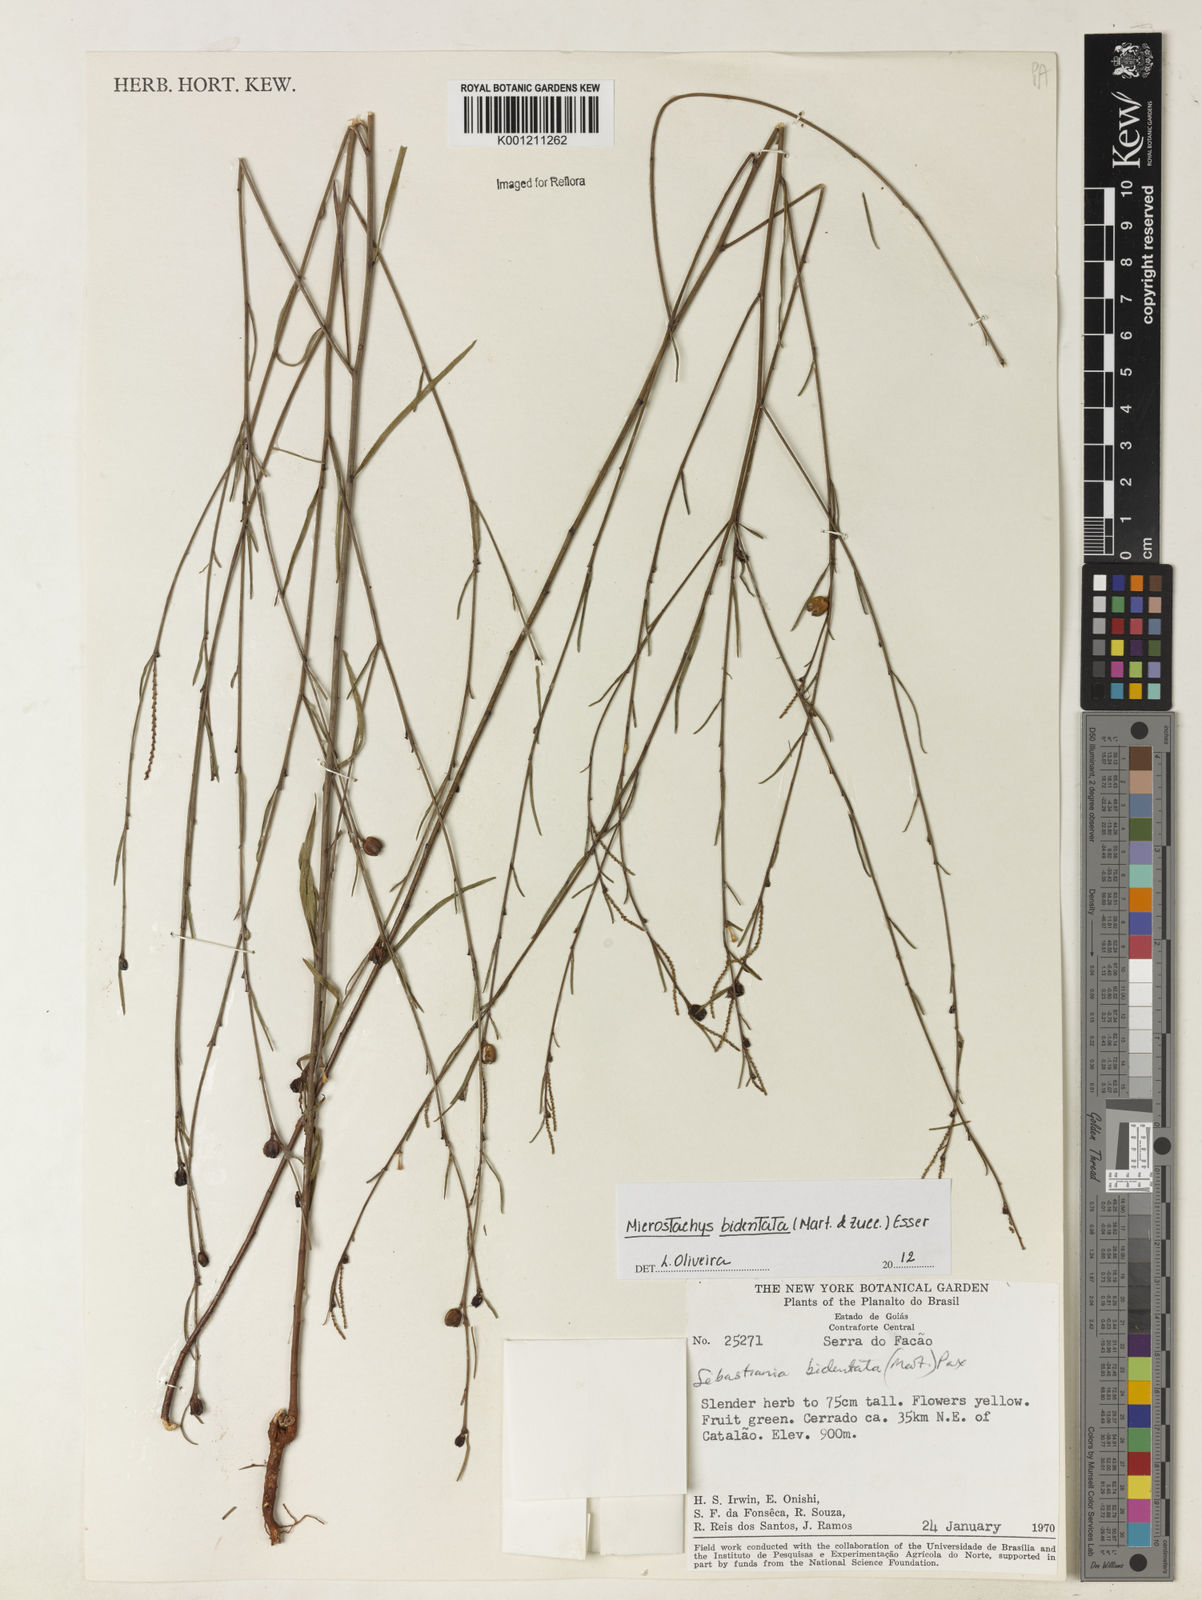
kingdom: Plantae
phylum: Tracheophyta
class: Magnoliopsida
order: Malpighiales
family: Euphorbiaceae
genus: Microstachys
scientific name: Microstachys bidentata
